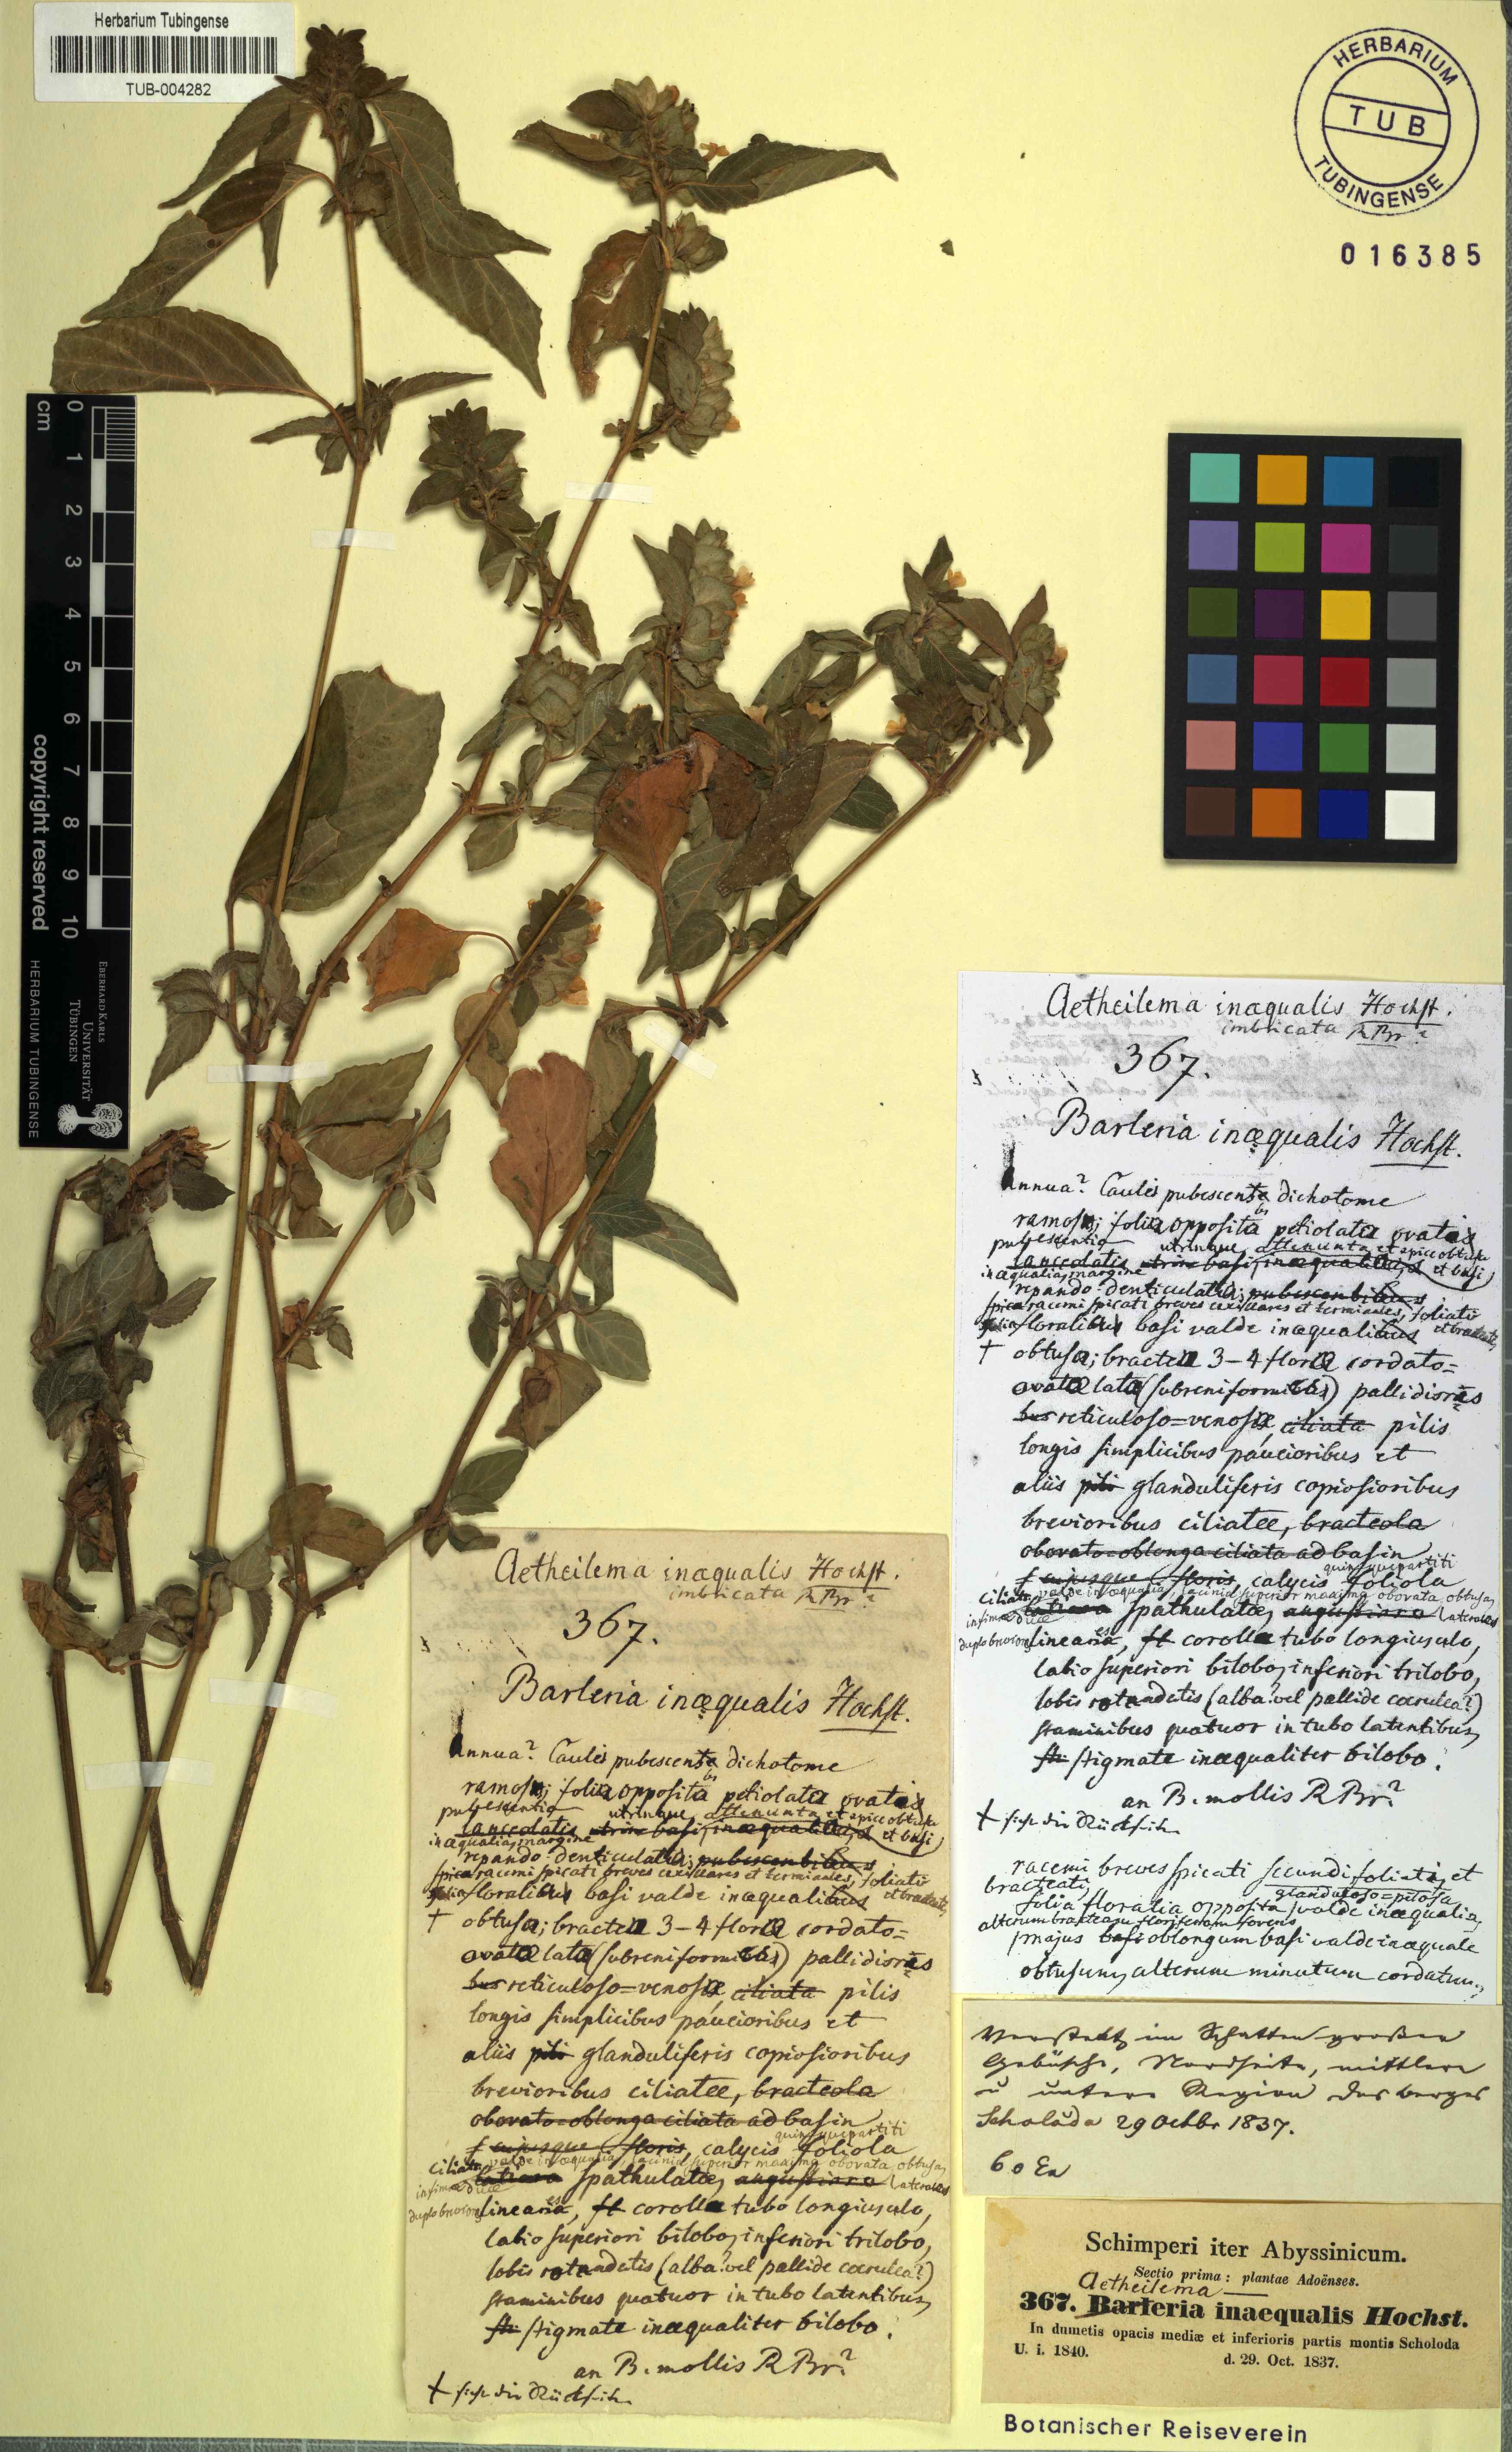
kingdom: Plantae
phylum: Tracheophyta
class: Magnoliopsida
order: Lamiales
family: Acanthaceae
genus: Phaulopsis
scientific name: Phaulopsis barteri
